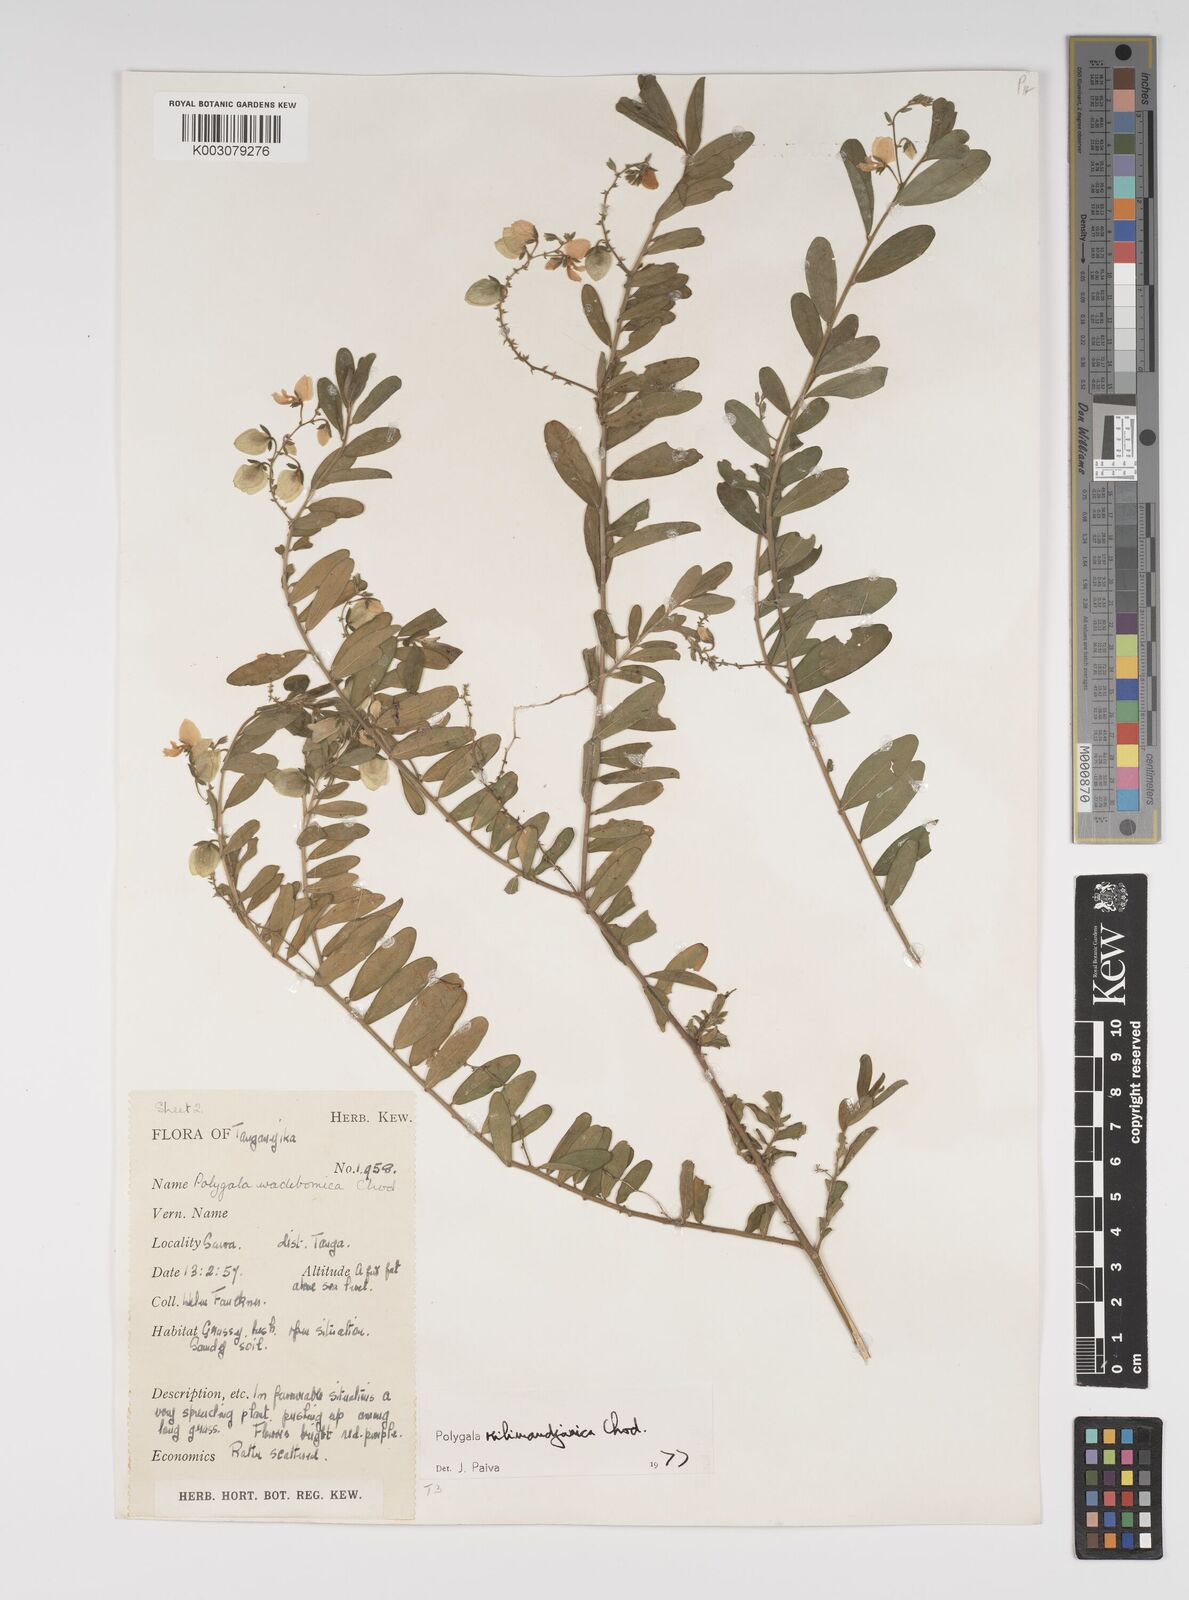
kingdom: Plantae
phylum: Tracheophyta
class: Magnoliopsida
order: Fabales
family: Polygalaceae
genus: Polygala
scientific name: Polygala kilimandjarica
